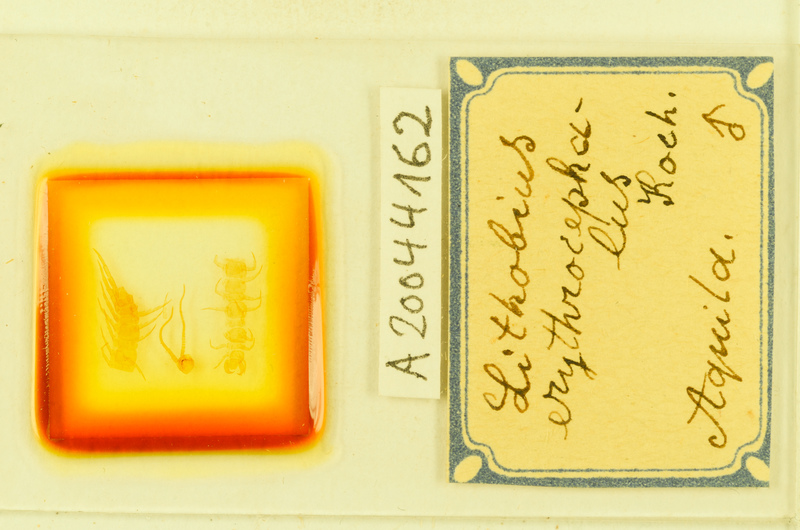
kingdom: Animalia
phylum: Arthropoda
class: Chilopoda
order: Lithobiomorpha
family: Lithobiidae
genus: Lithobius
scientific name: Lithobius erythrocephalus
